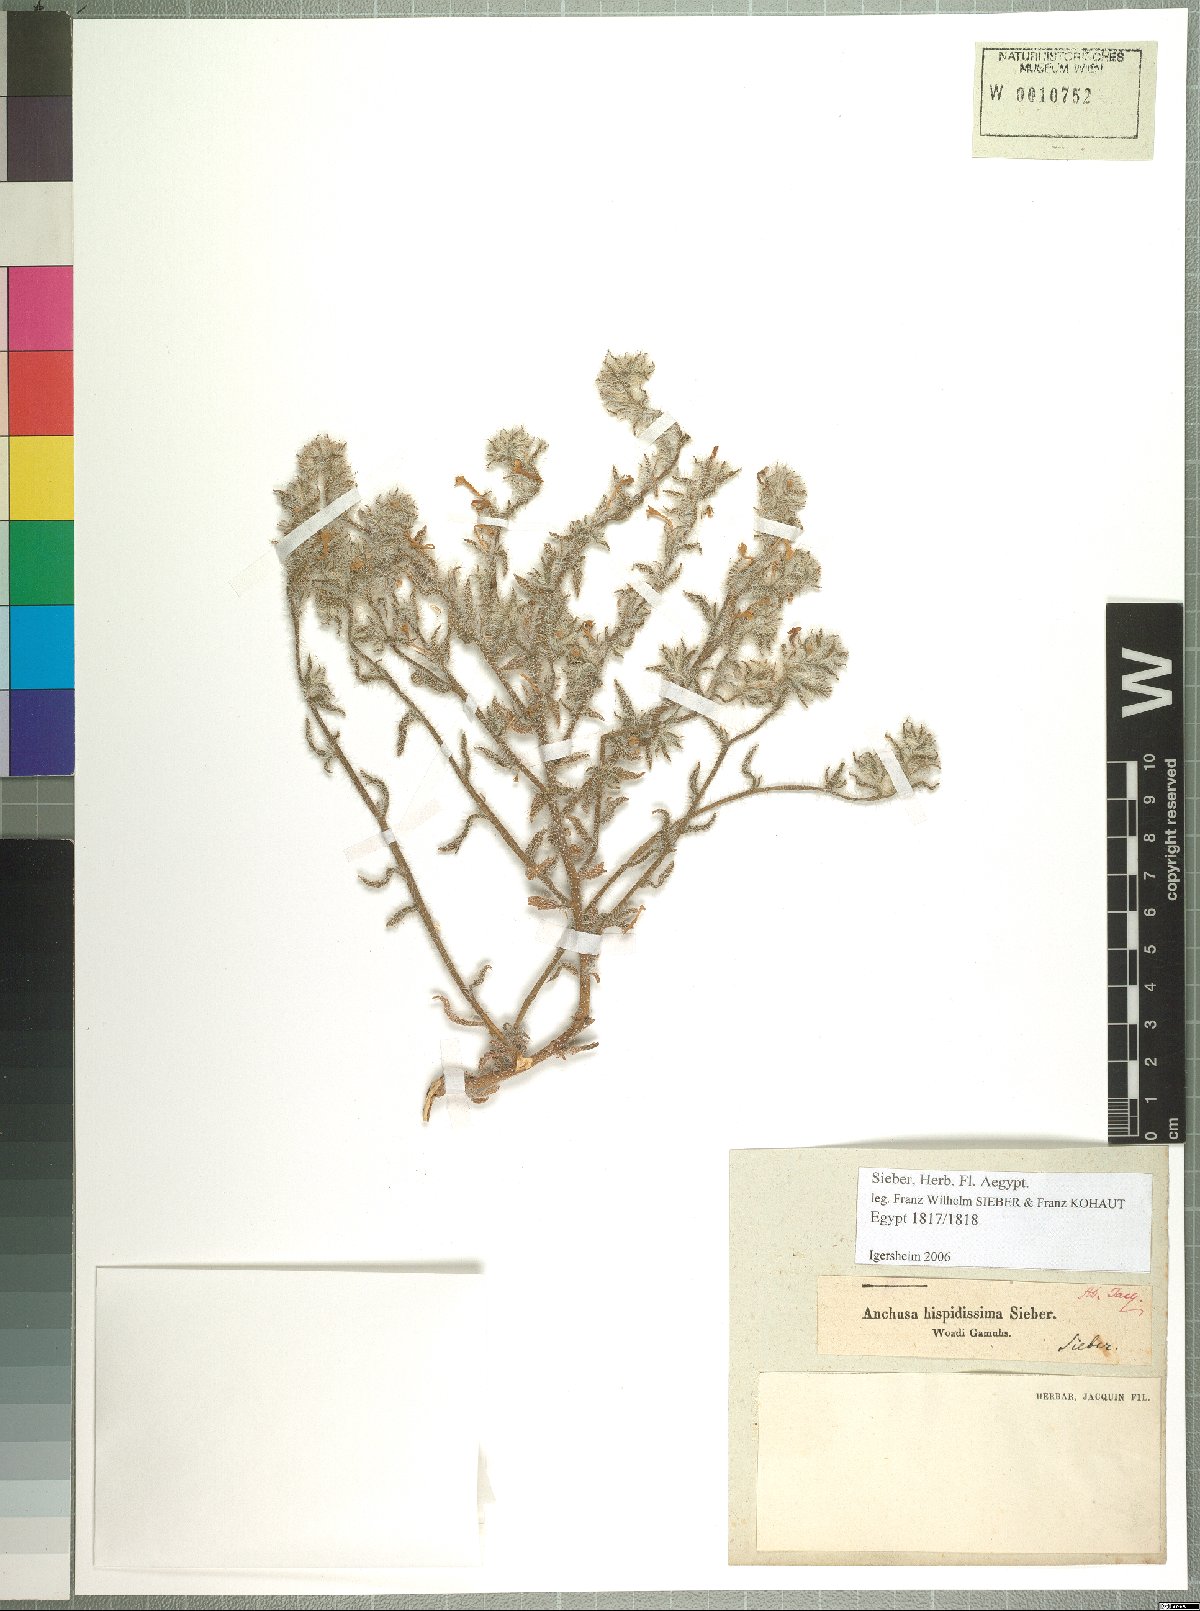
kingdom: Plantae
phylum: Tracheophyta
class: Magnoliopsida
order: Boraginales
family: Boraginaceae
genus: Arnebia
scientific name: Arnebia hispidissima
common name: Arabian-primrose
